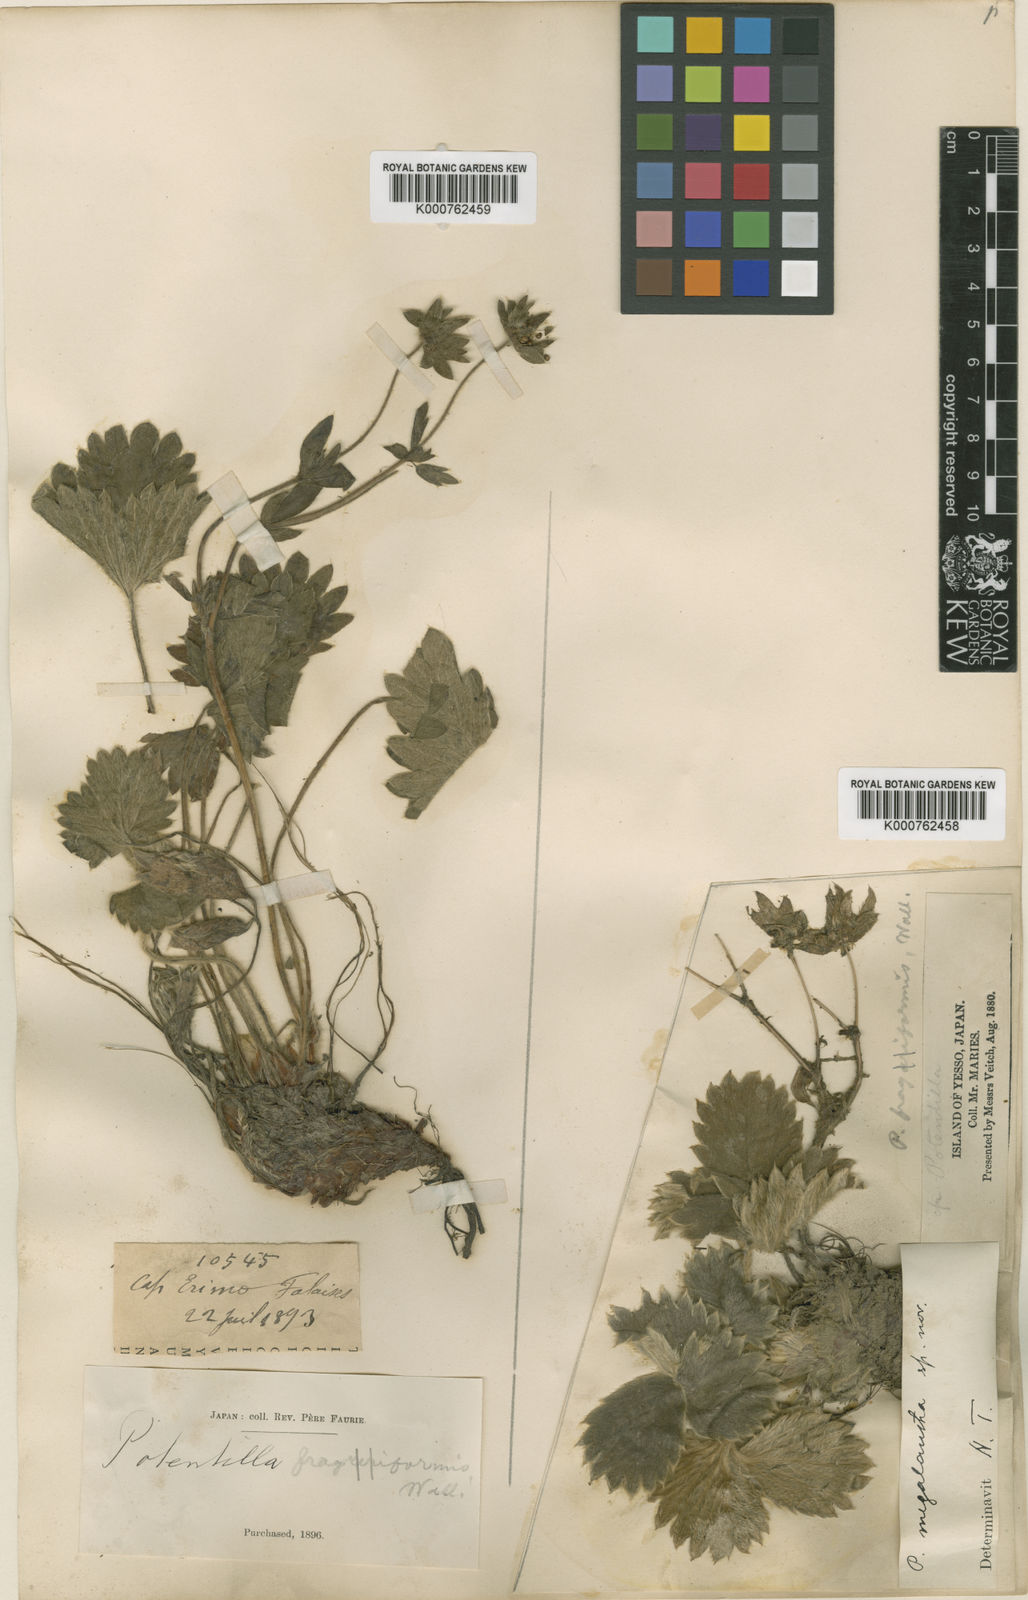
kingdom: Plantae
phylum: Tracheophyta
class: Magnoliopsida
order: Rosales
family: Rosaceae
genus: Potentilla
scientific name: Potentilla megalantha
